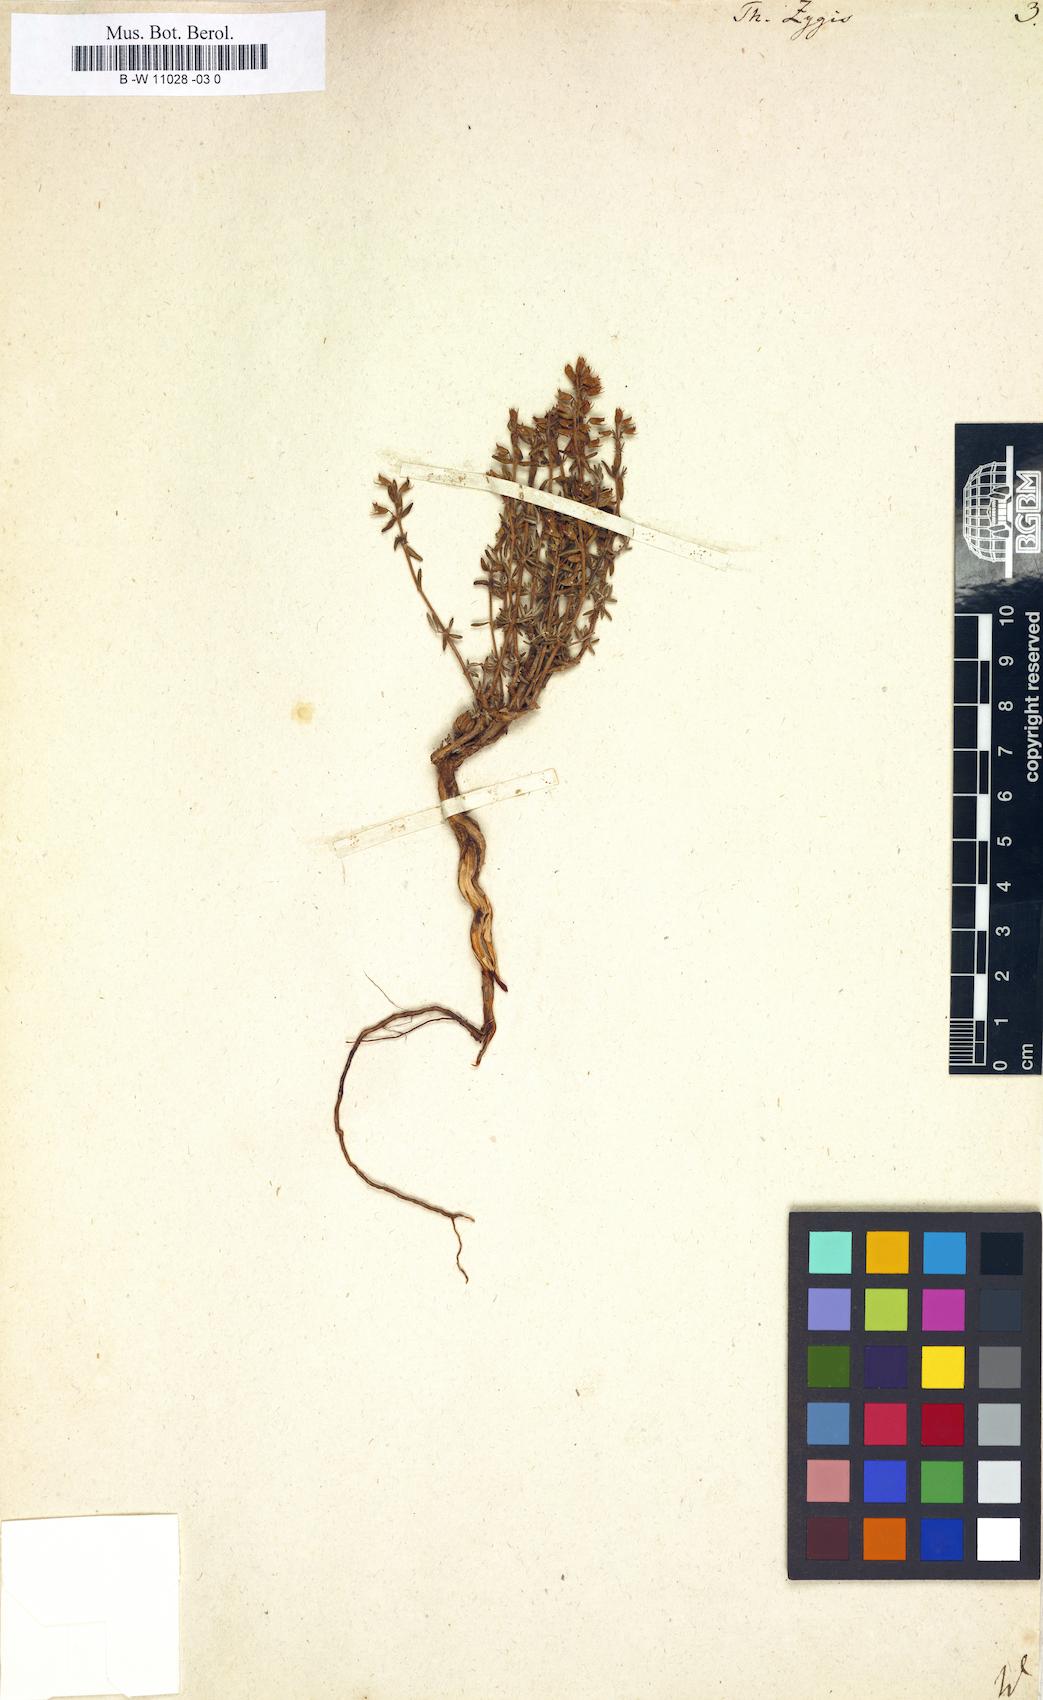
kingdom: Plantae
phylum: Tracheophyta
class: Magnoliopsida
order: Lamiales
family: Lamiaceae
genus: Thymus
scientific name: Thymus zygis
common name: White thyme
